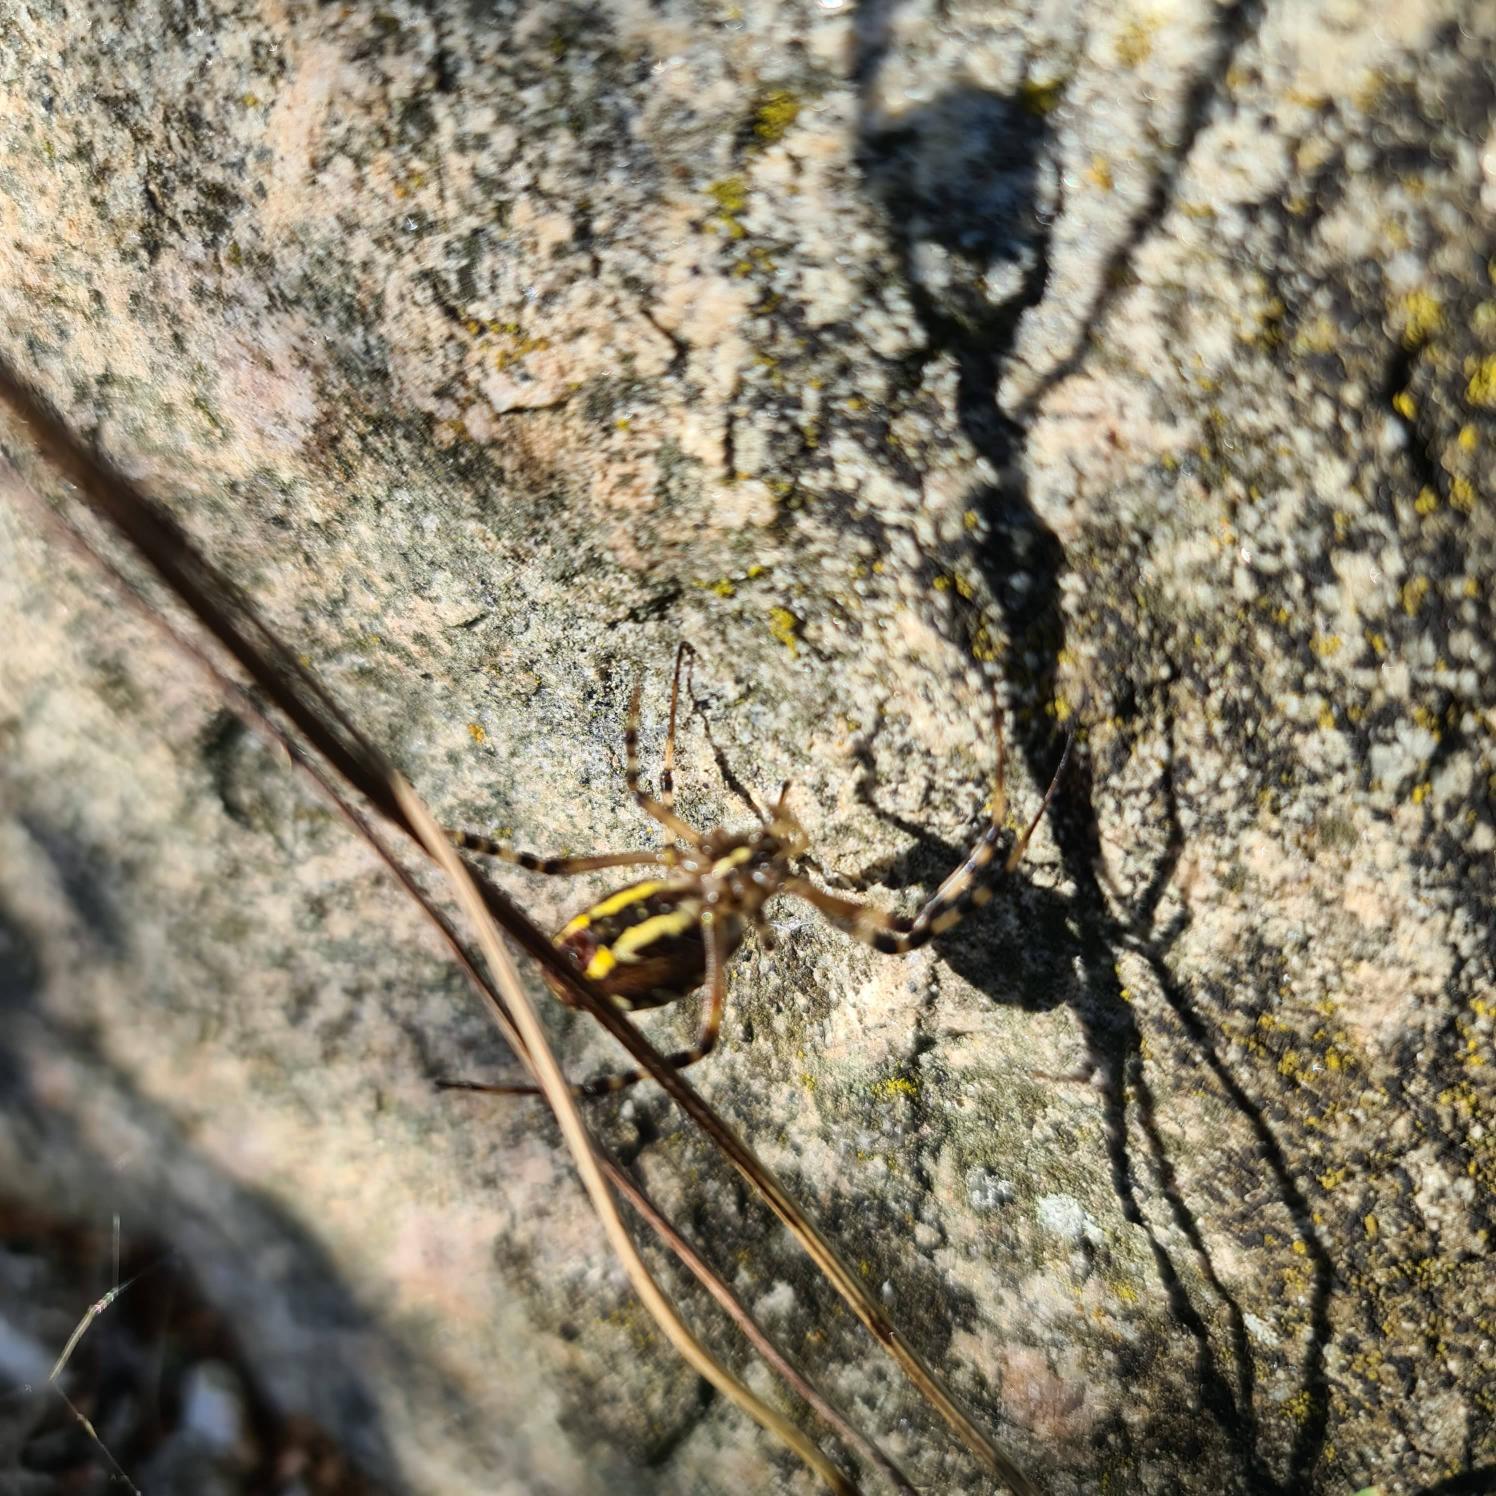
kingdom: Animalia
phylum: Arthropoda
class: Arachnida
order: Araneae
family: Araneidae
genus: Argiope
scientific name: Argiope bruennichi
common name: Hvepseedderkop
